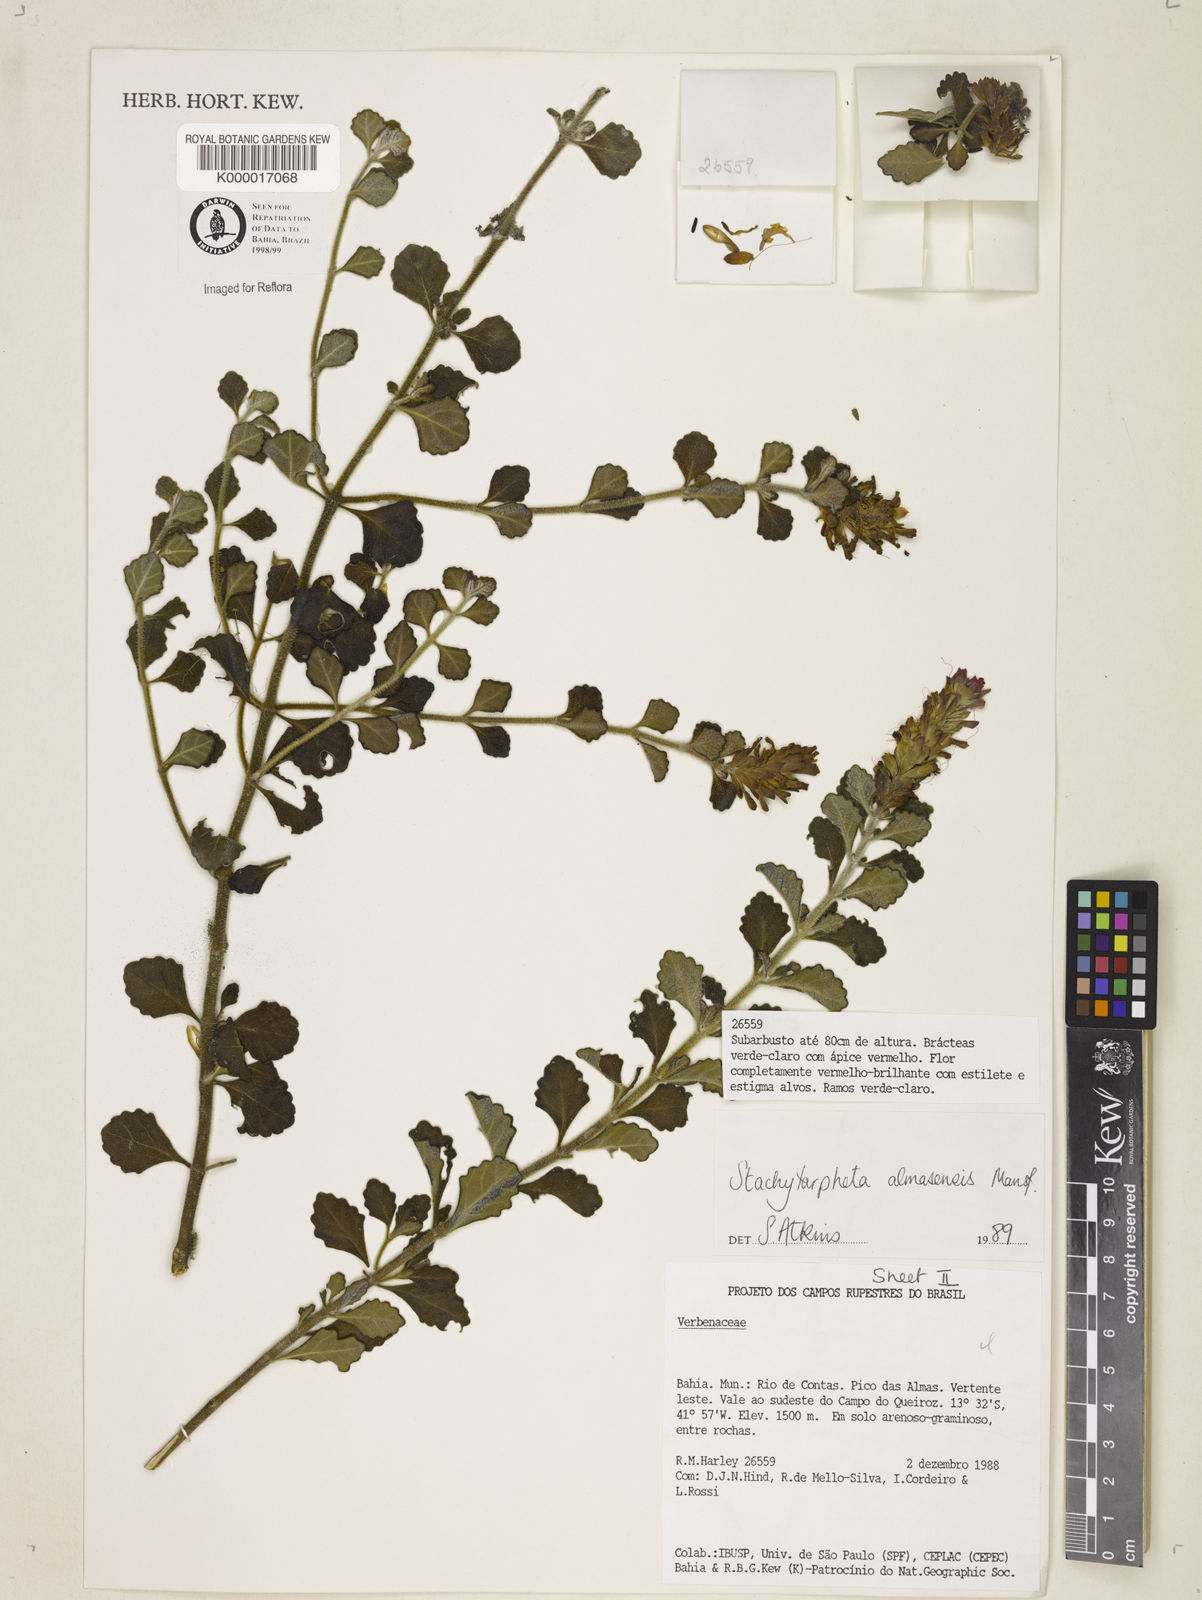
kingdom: Plantae
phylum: Tracheophyta
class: Magnoliopsida
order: Lamiales
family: Verbenaceae
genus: Stachytarpheta
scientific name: Stachytarpheta almasensis
